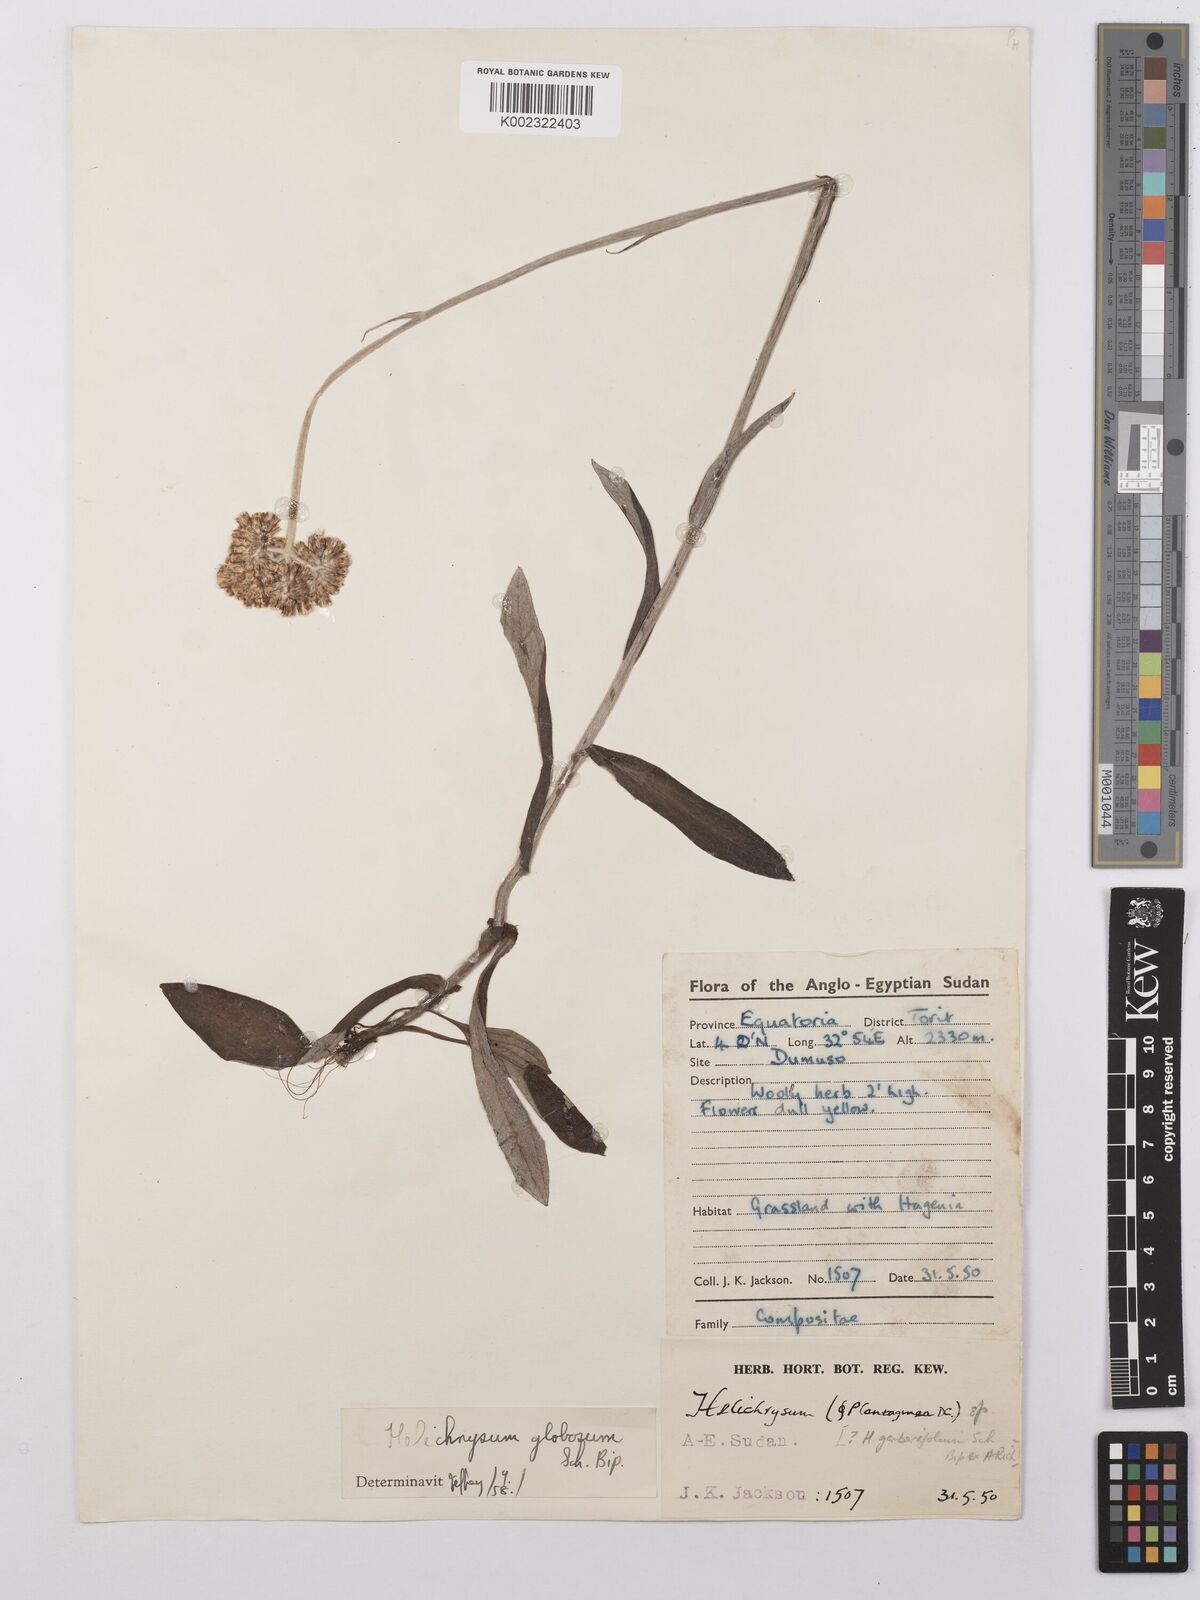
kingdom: Plantae
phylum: Tracheophyta
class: Magnoliopsida
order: Asterales
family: Asteraceae
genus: Helichrysum
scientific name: Helichrysum globosum
